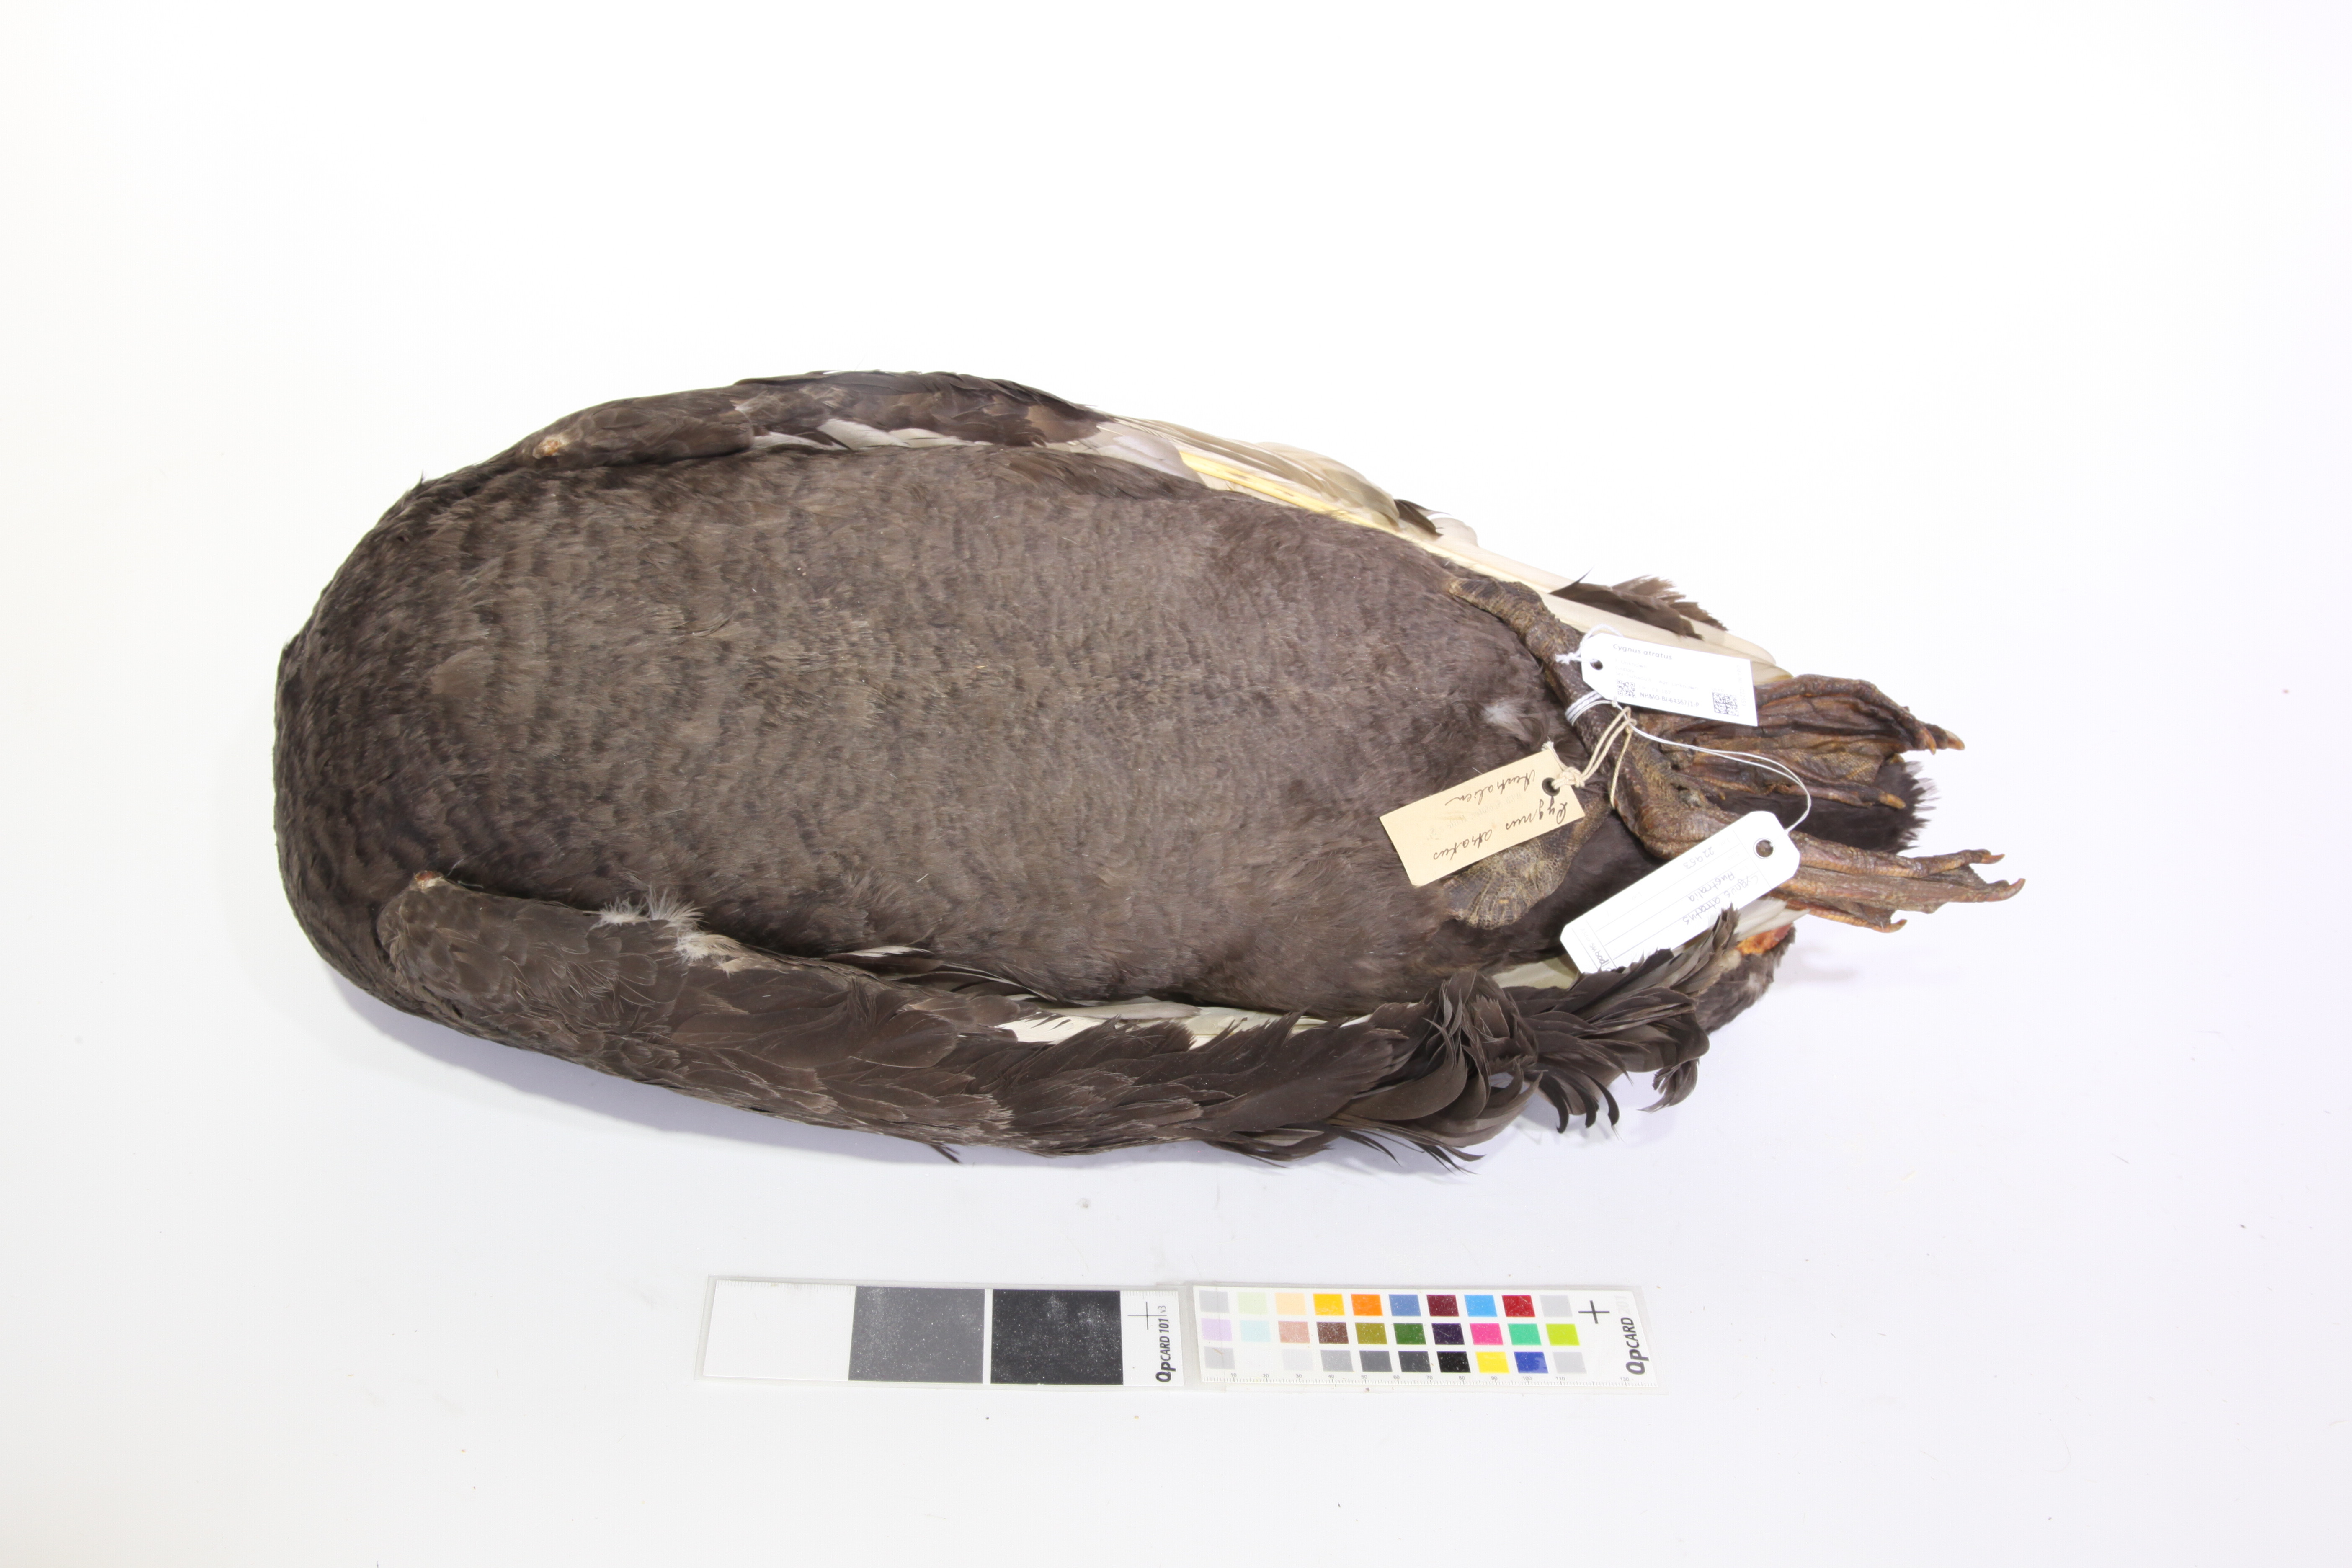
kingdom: Animalia
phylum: Chordata
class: Aves
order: Anseriformes
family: Anatidae
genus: Cygnus
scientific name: Cygnus atratus
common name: Black swan
